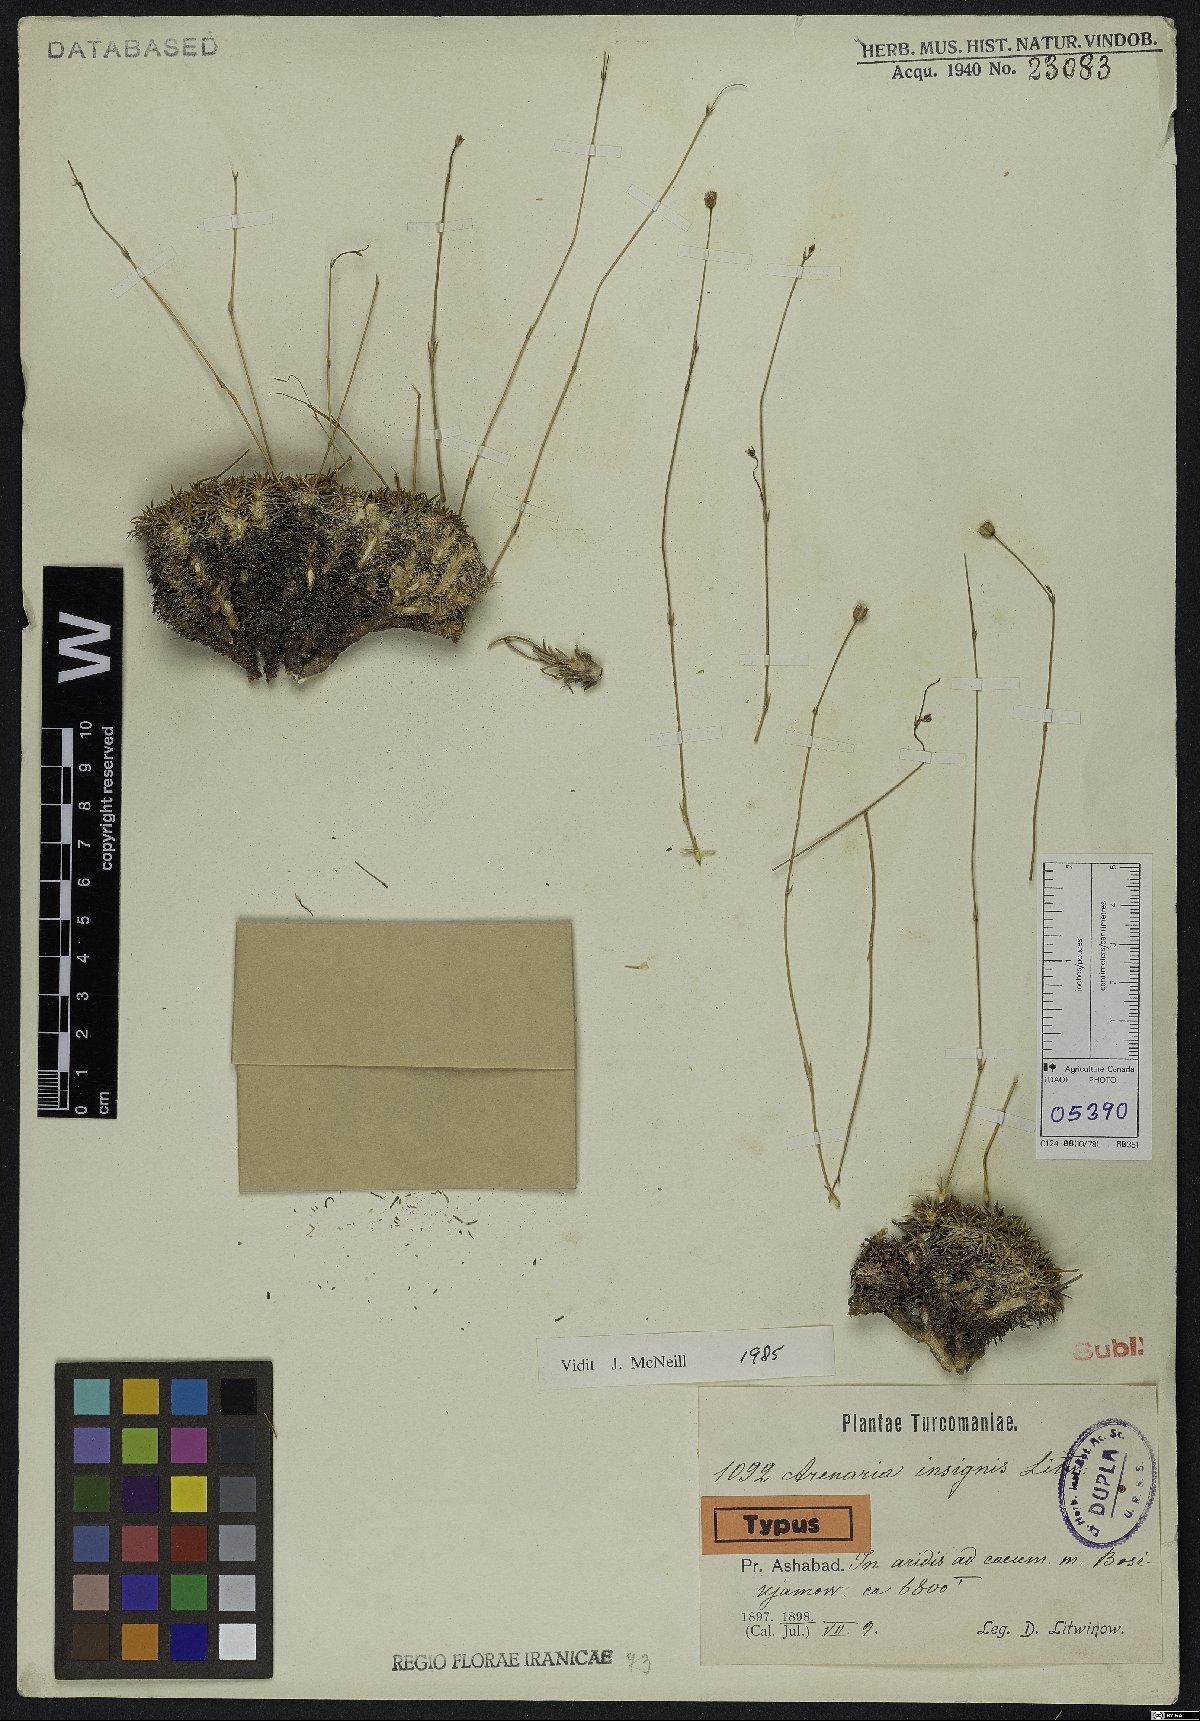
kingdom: Plantae
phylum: Tracheophyta
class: Magnoliopsida
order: Caryophyllales
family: Caryophyllaceae
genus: Eremogone
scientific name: Eremogone insignis
